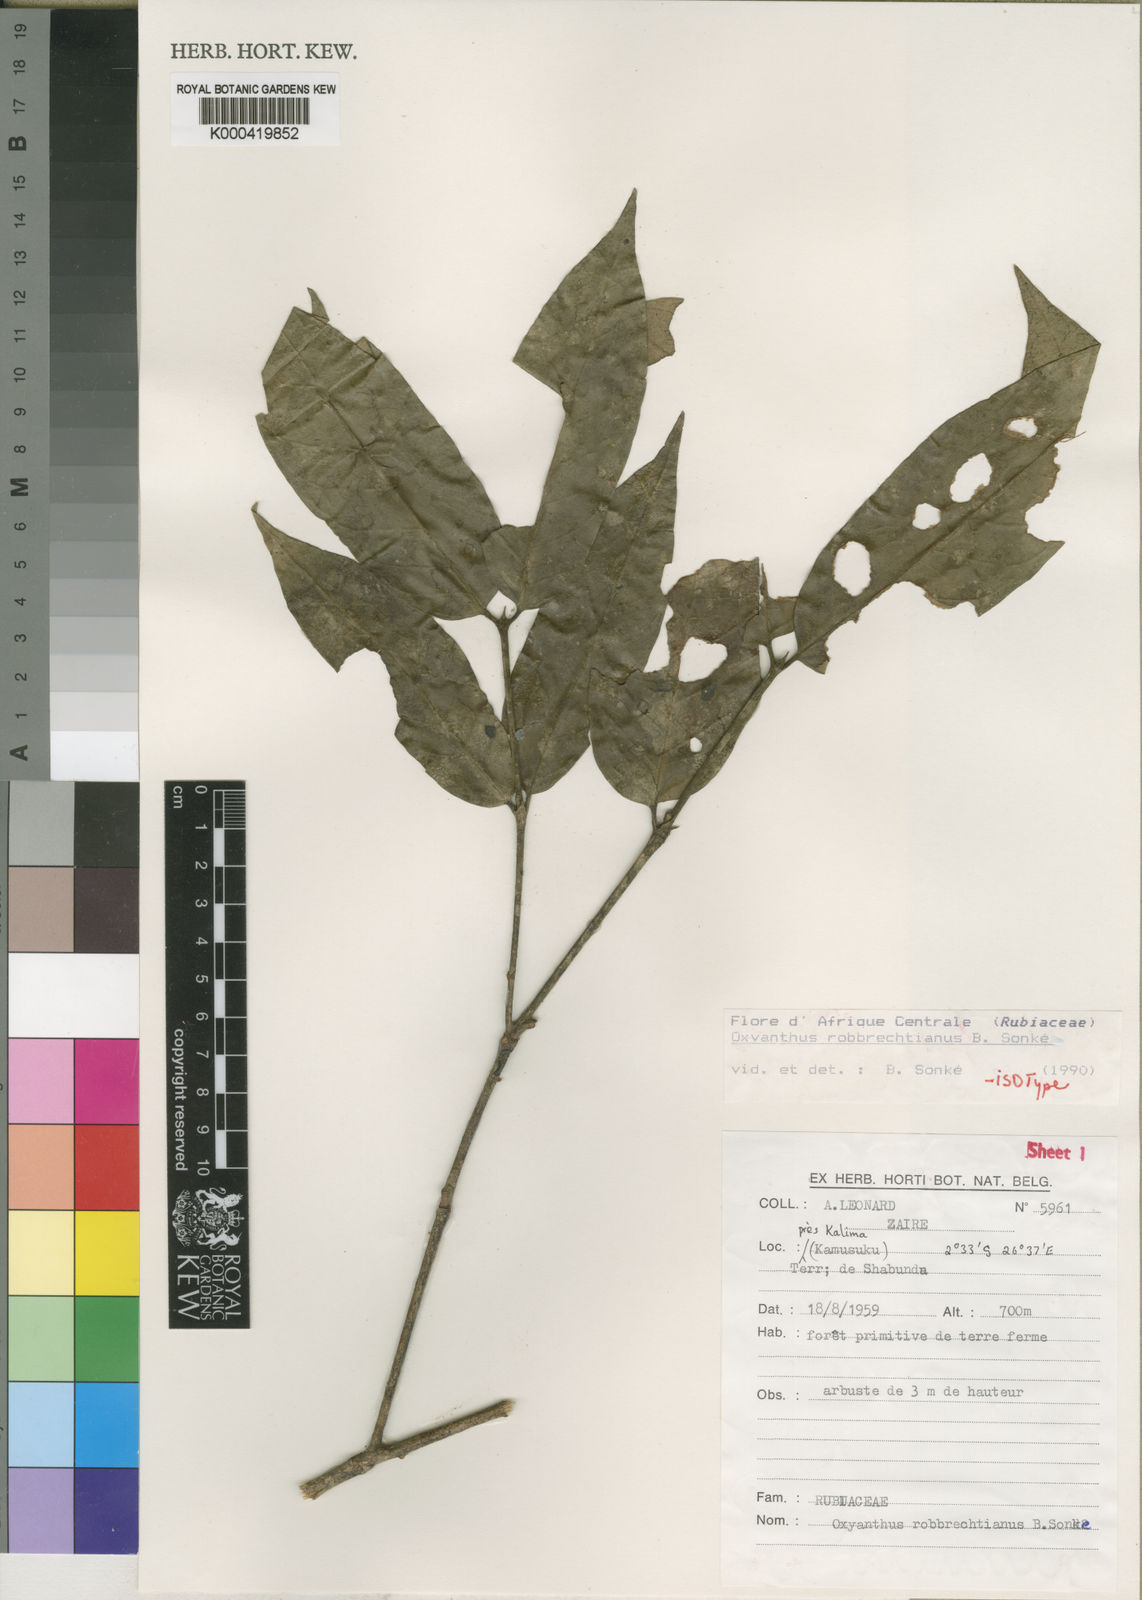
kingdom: Plantae
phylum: Tracheophyta
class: Magnoliopsida
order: Gentianales
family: Rubiaceae
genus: Oxyanthus
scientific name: Oxyanthus
